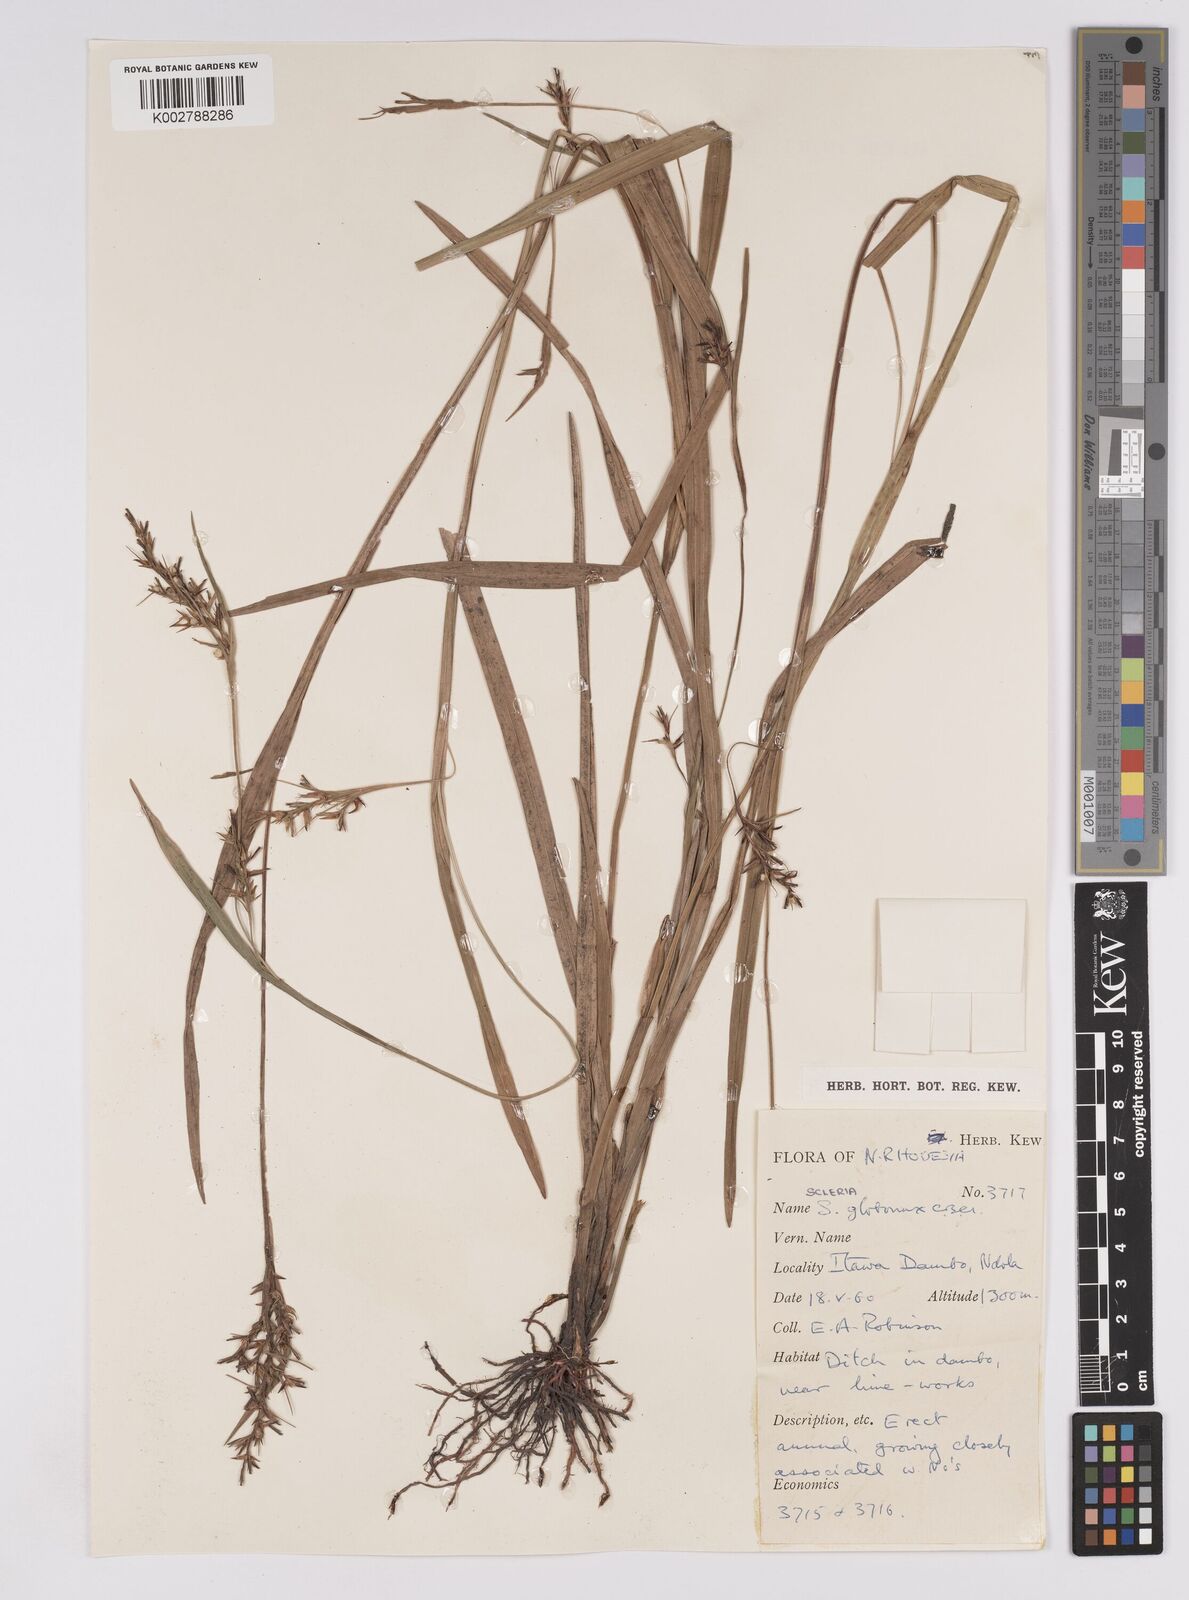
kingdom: Plantae
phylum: Tracheophyta
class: Liliopsida
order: Poales
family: Cyperaceae
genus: Scleria
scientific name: Scleria globonux
